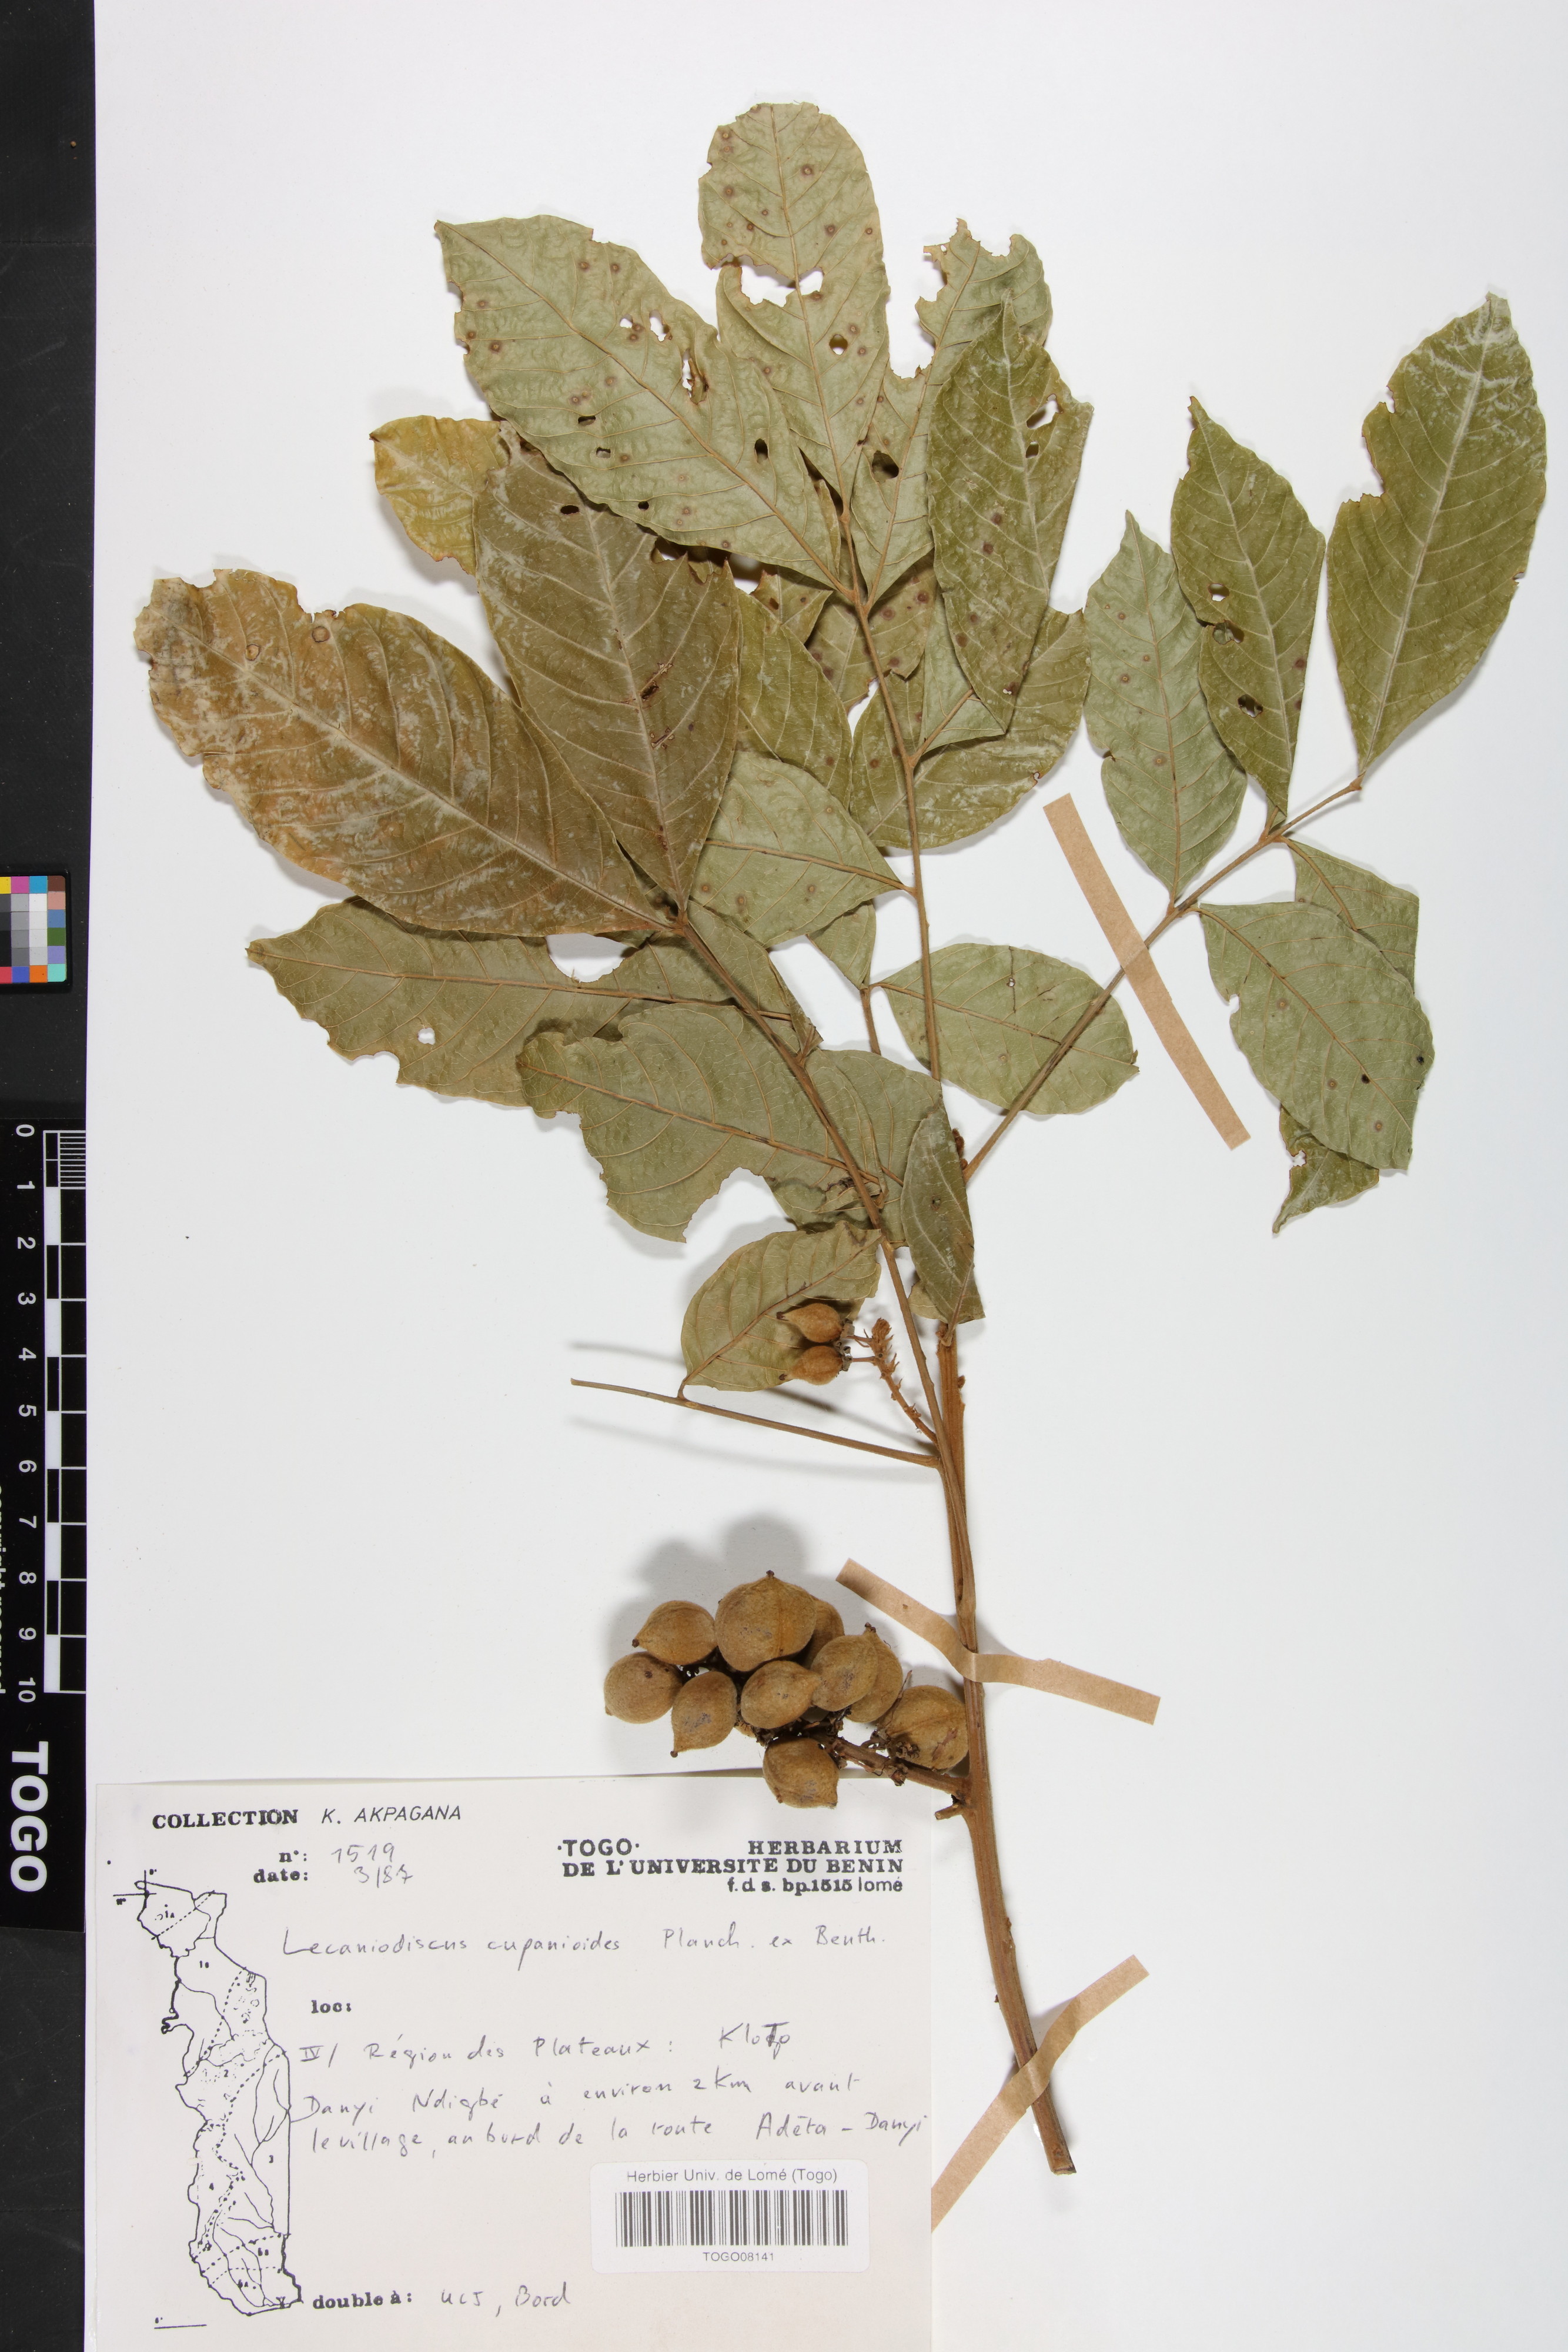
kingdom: Plantae
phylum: Tracheophyta
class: Magnoliopsida
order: Sapindales
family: Sapindaceae
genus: Lecaniodiscus
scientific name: Lecaniodiscus cupanioides
